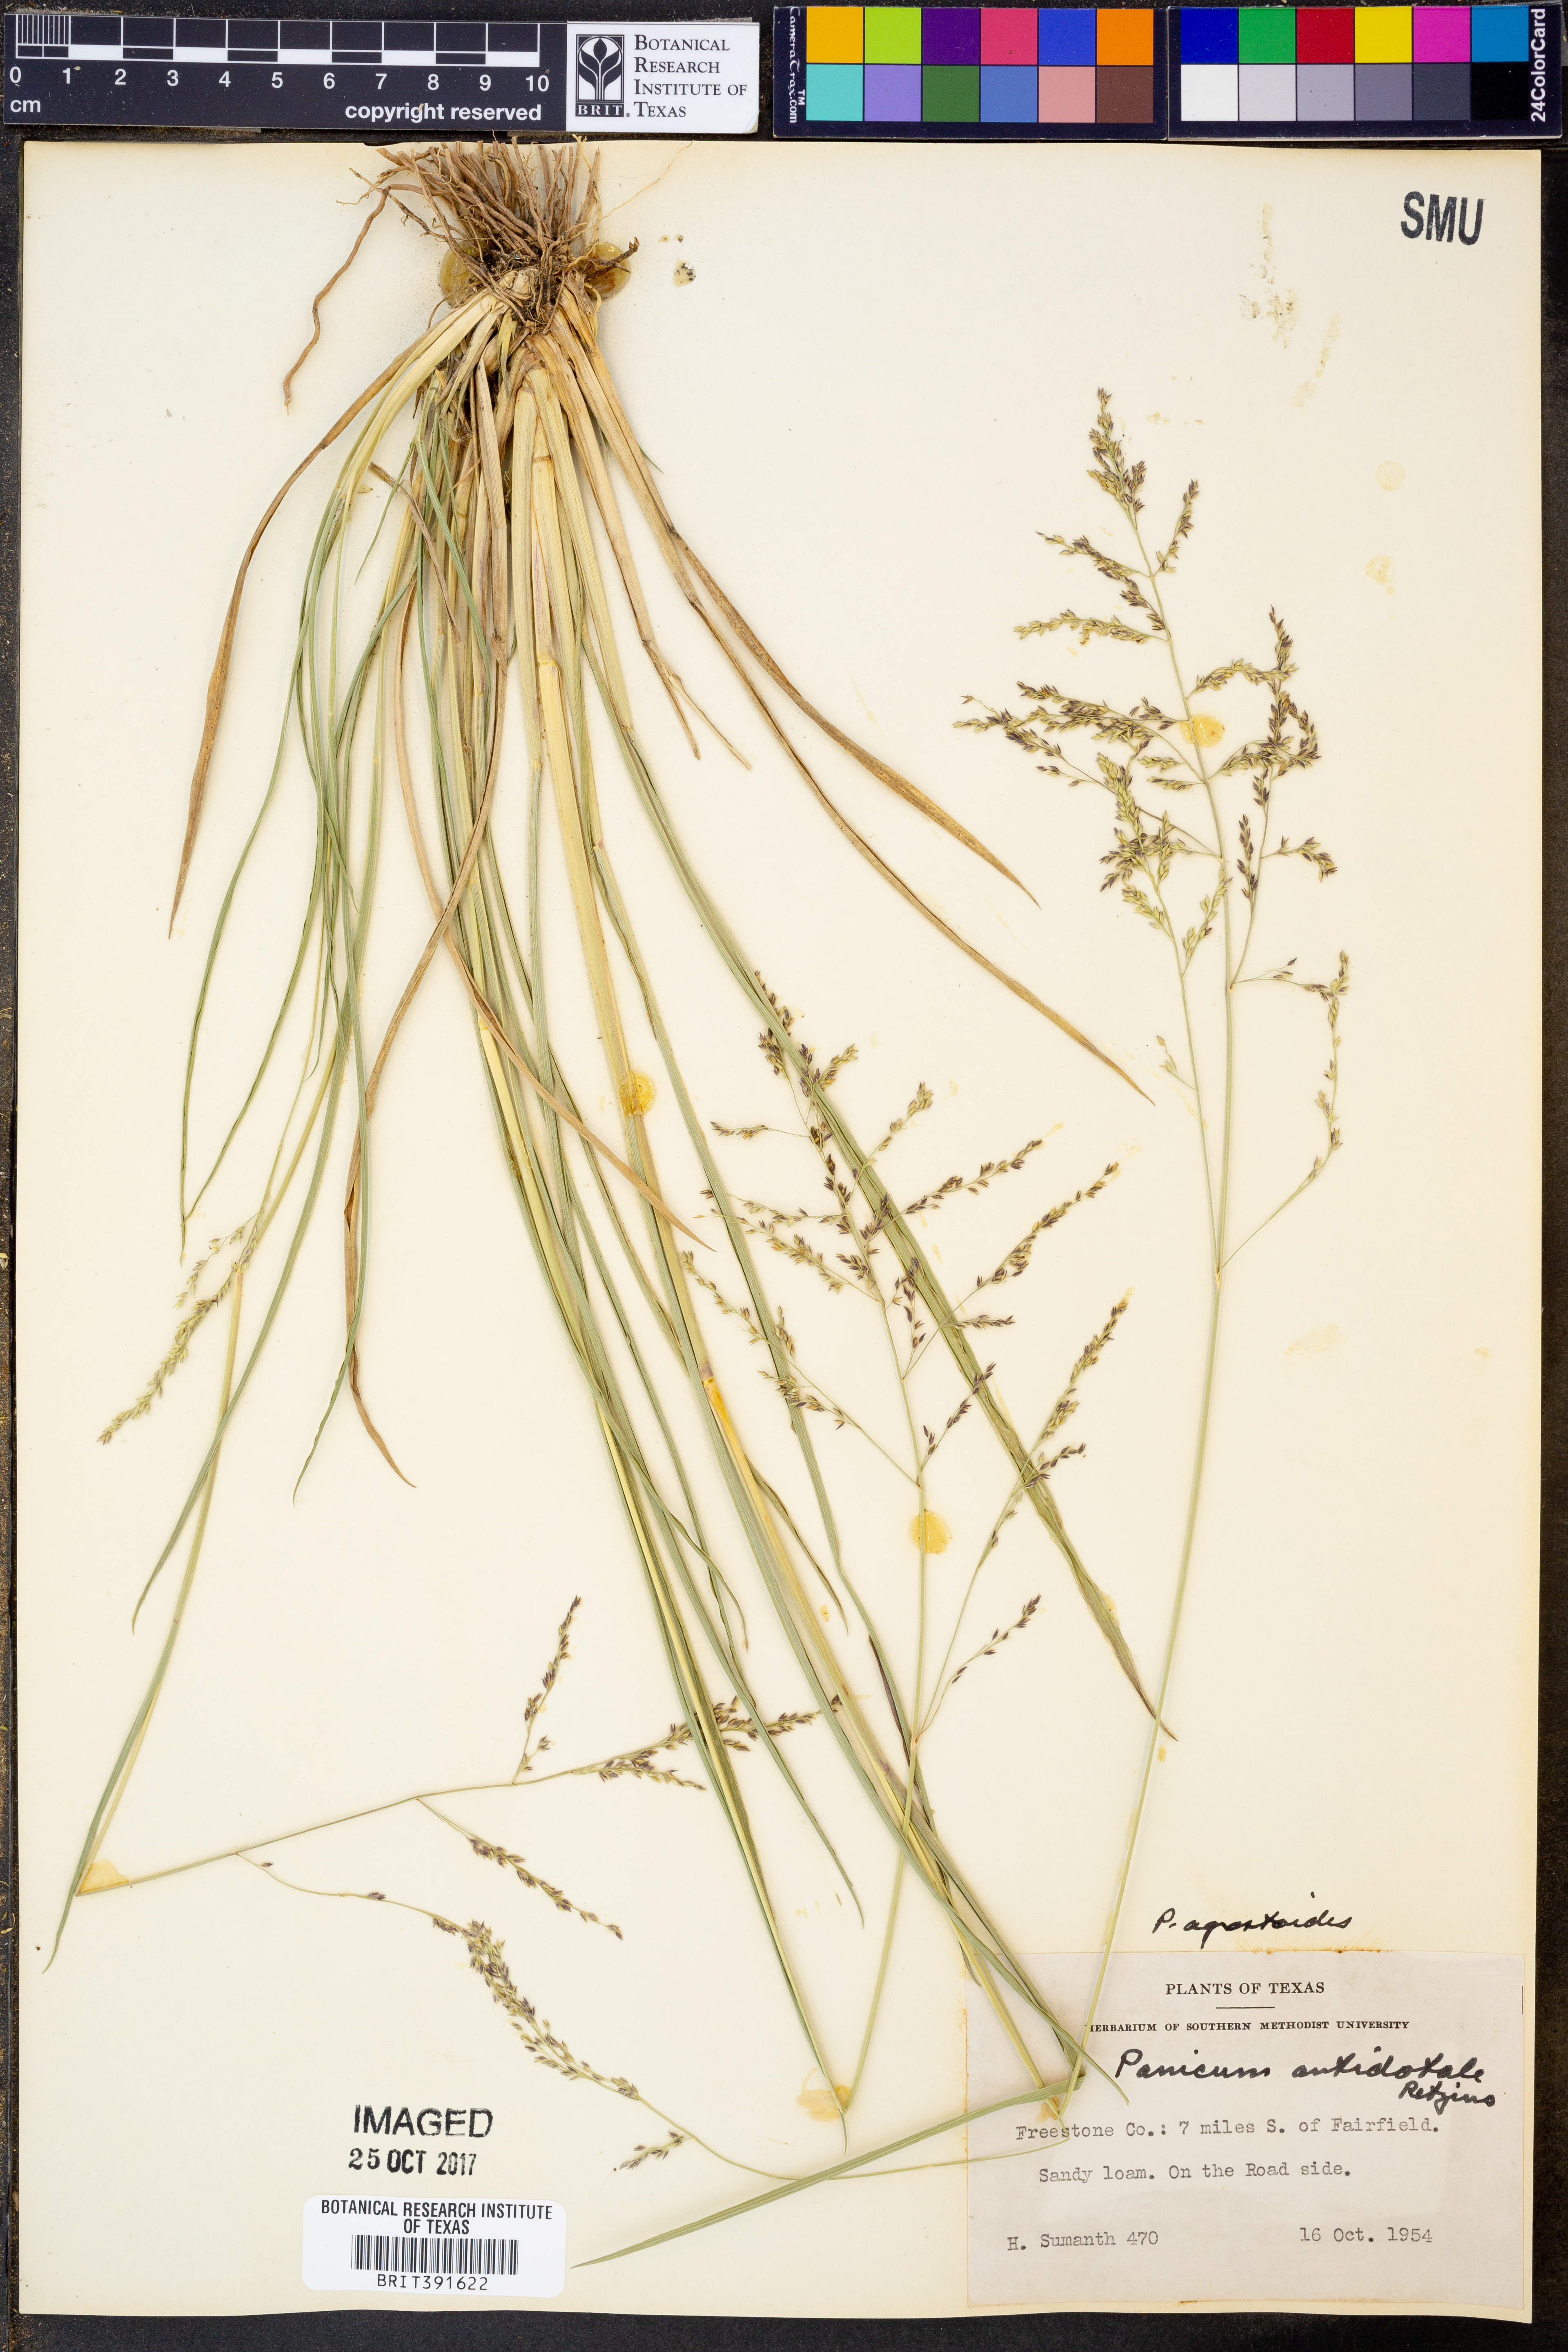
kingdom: Plantae
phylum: Tracheophyta
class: Liliopsida
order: Poales
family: Poaceae
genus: Steinchisma
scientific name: Steinchisma laxum
